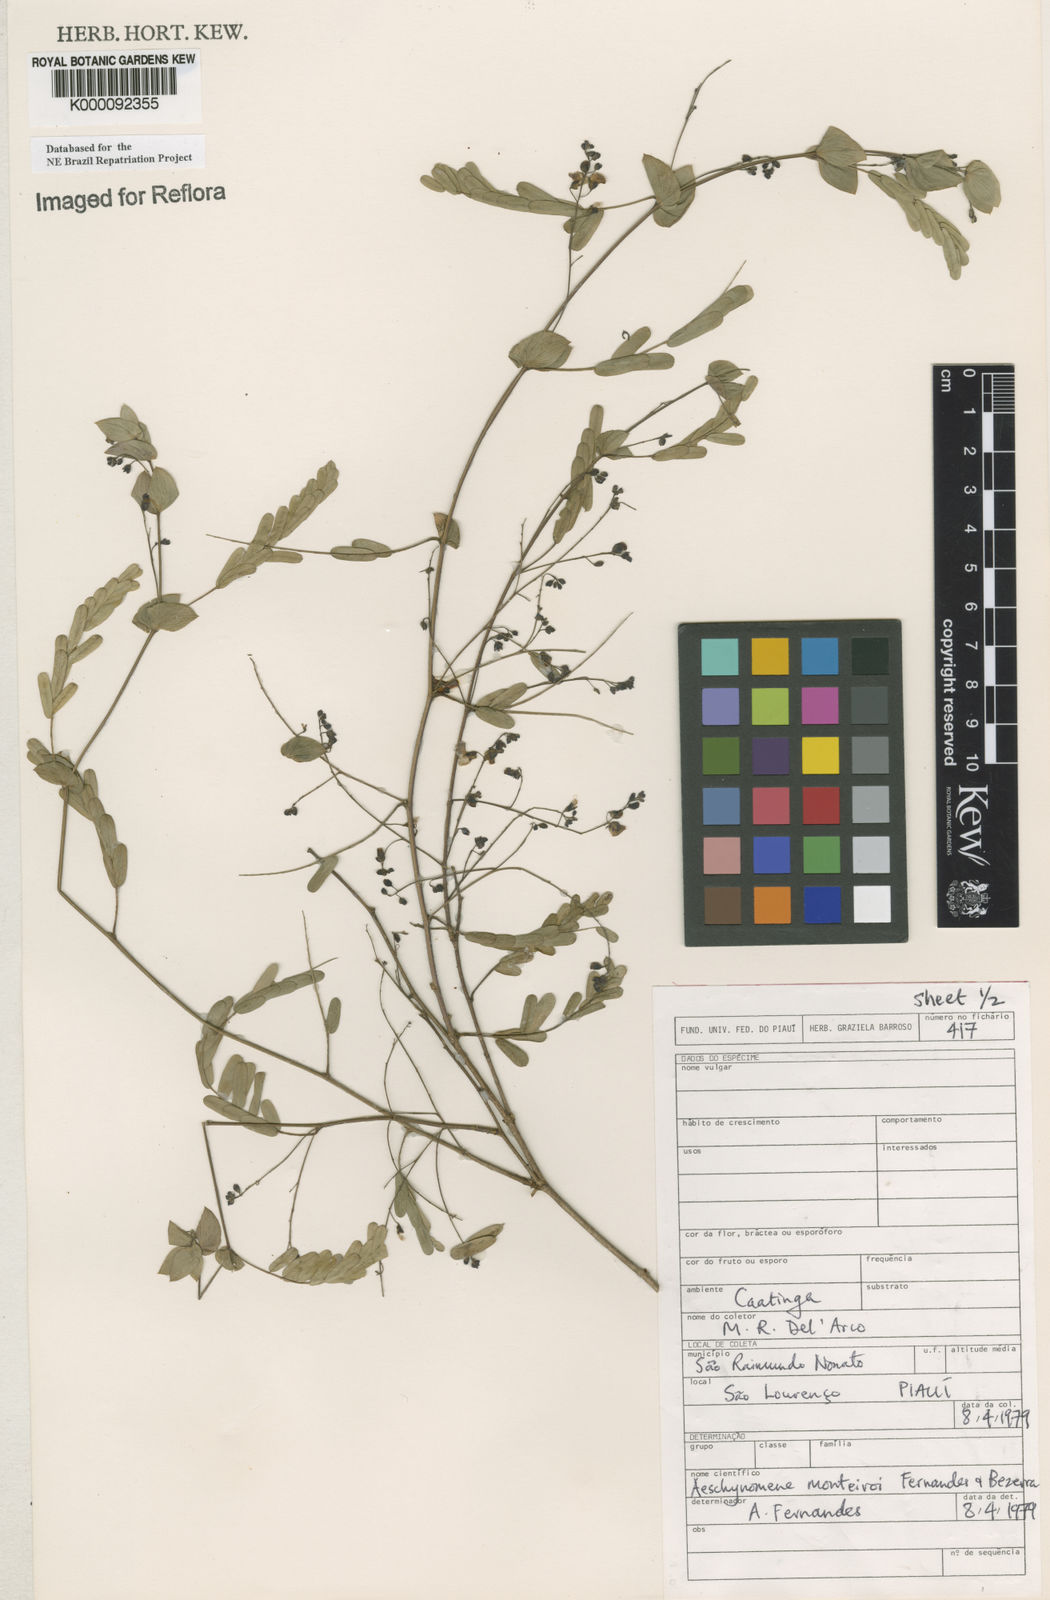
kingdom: Plantae
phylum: Tracheophyta
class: Magnoliopsida
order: Fabales
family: Fabaceae
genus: Ctenodon
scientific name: Ctenodon monteiroi
